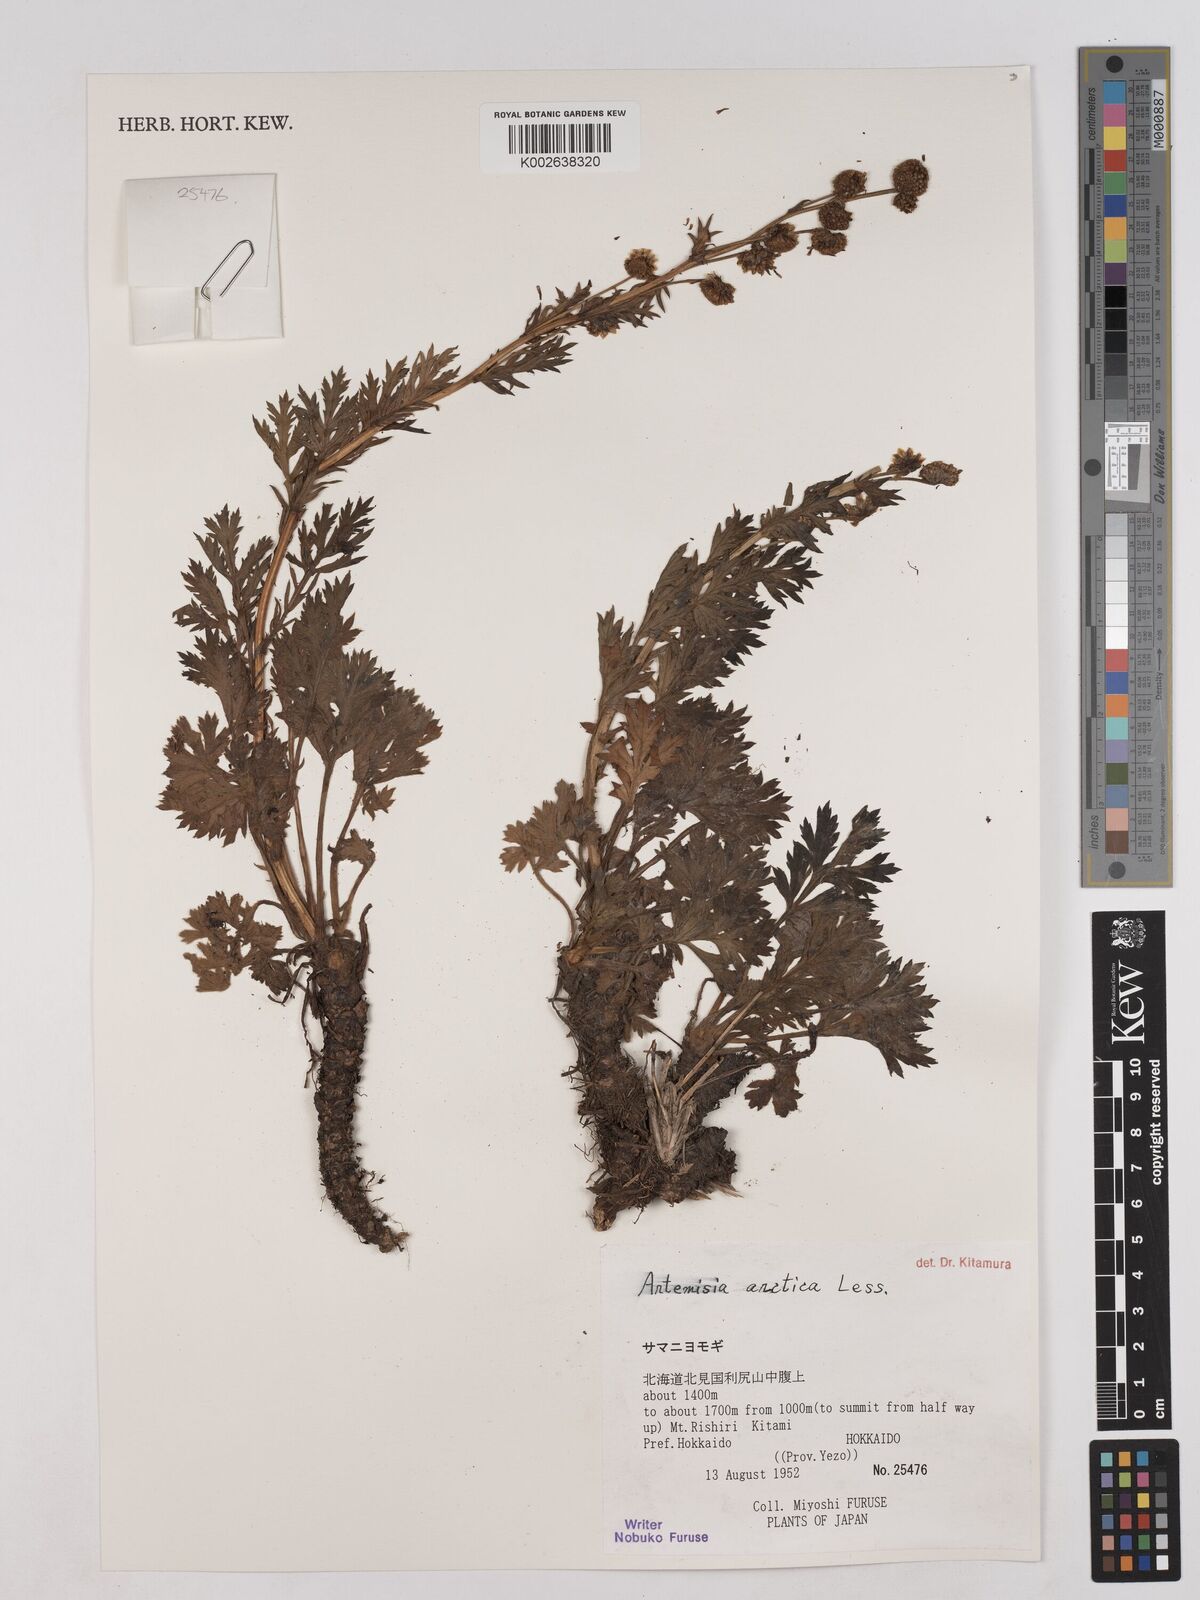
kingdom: Plantae
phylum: Tracheophyta
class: Magnoliopsida
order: Asterales
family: Asteraceae
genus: Artemisia
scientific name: Artemisia norvegica
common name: Norwegian mugwort
